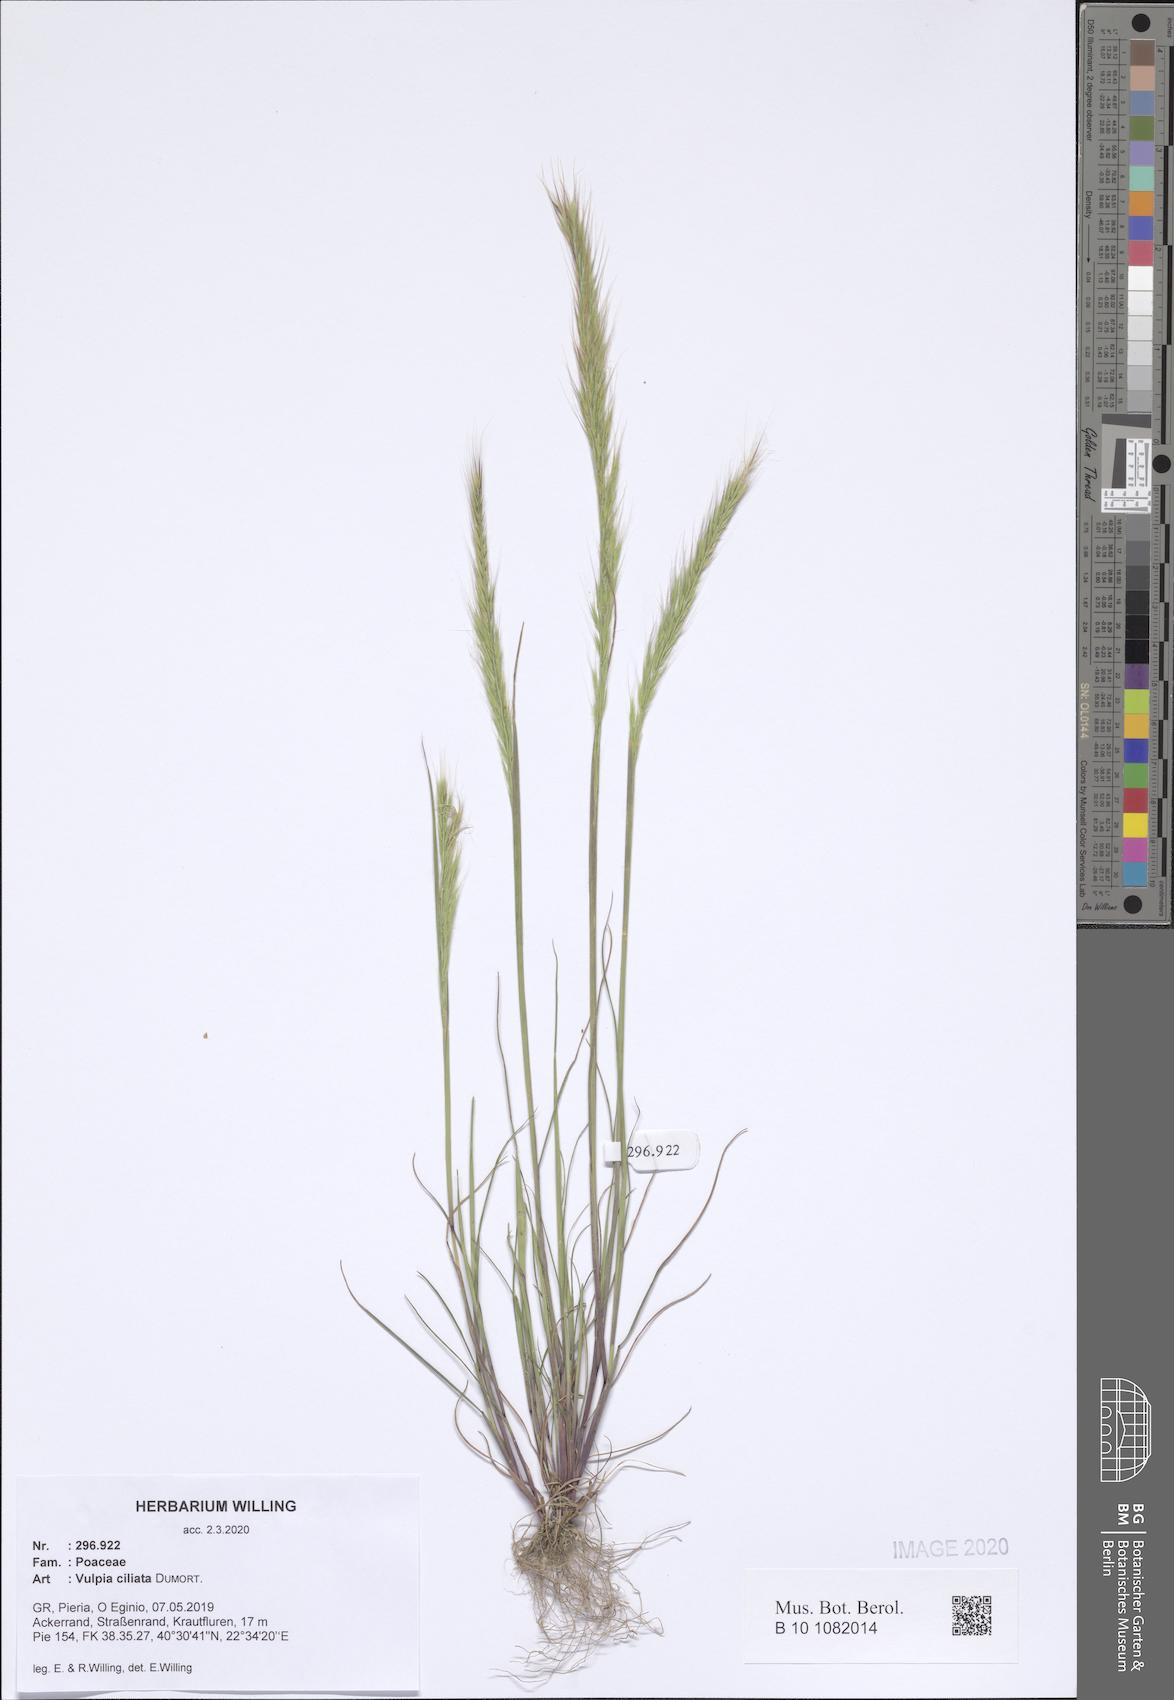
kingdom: Plantae
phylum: Tracheophyta
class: Liliopsida
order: Poales
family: Poaceae
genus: Festuca
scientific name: Festuca ambigua
